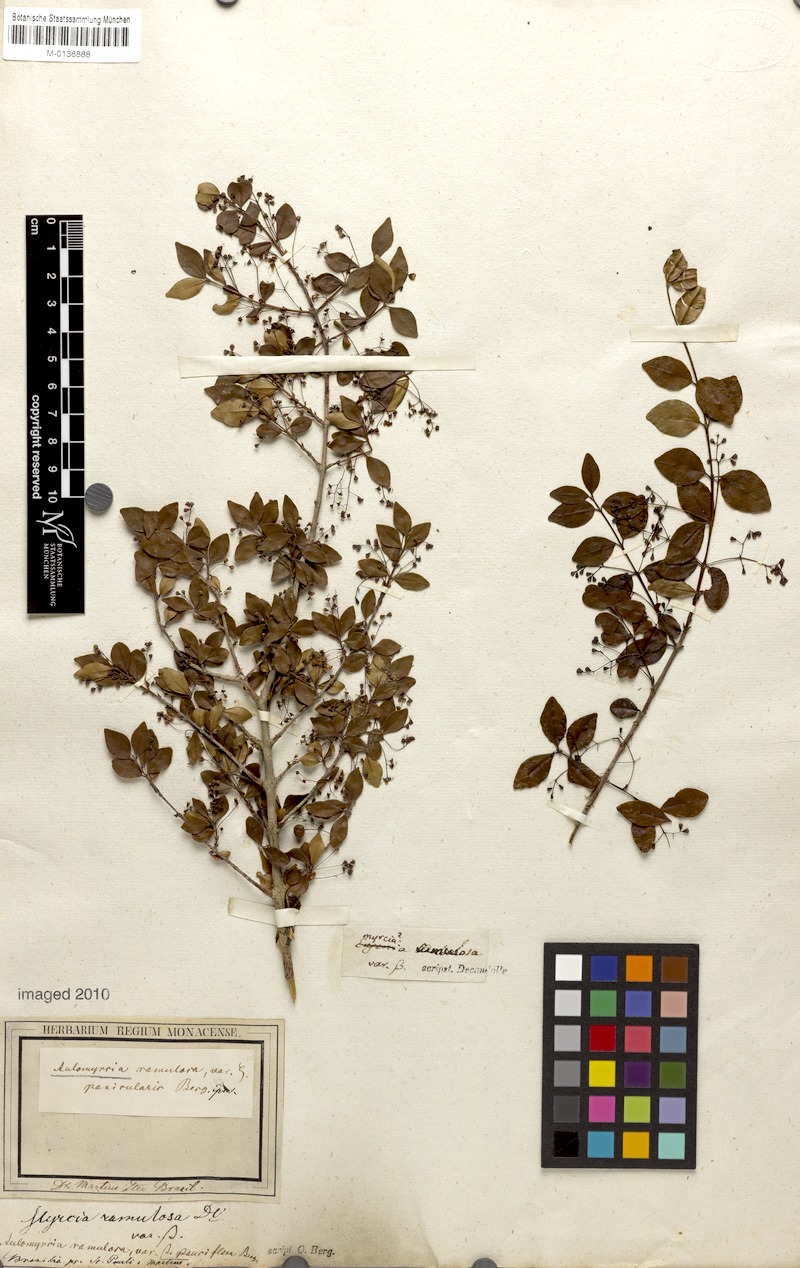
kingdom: Plantae
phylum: Tracheophyta
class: Magnoliopsida
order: Myrtales
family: Myrtaceae
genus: Myrcia
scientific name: Myrcia selloi
